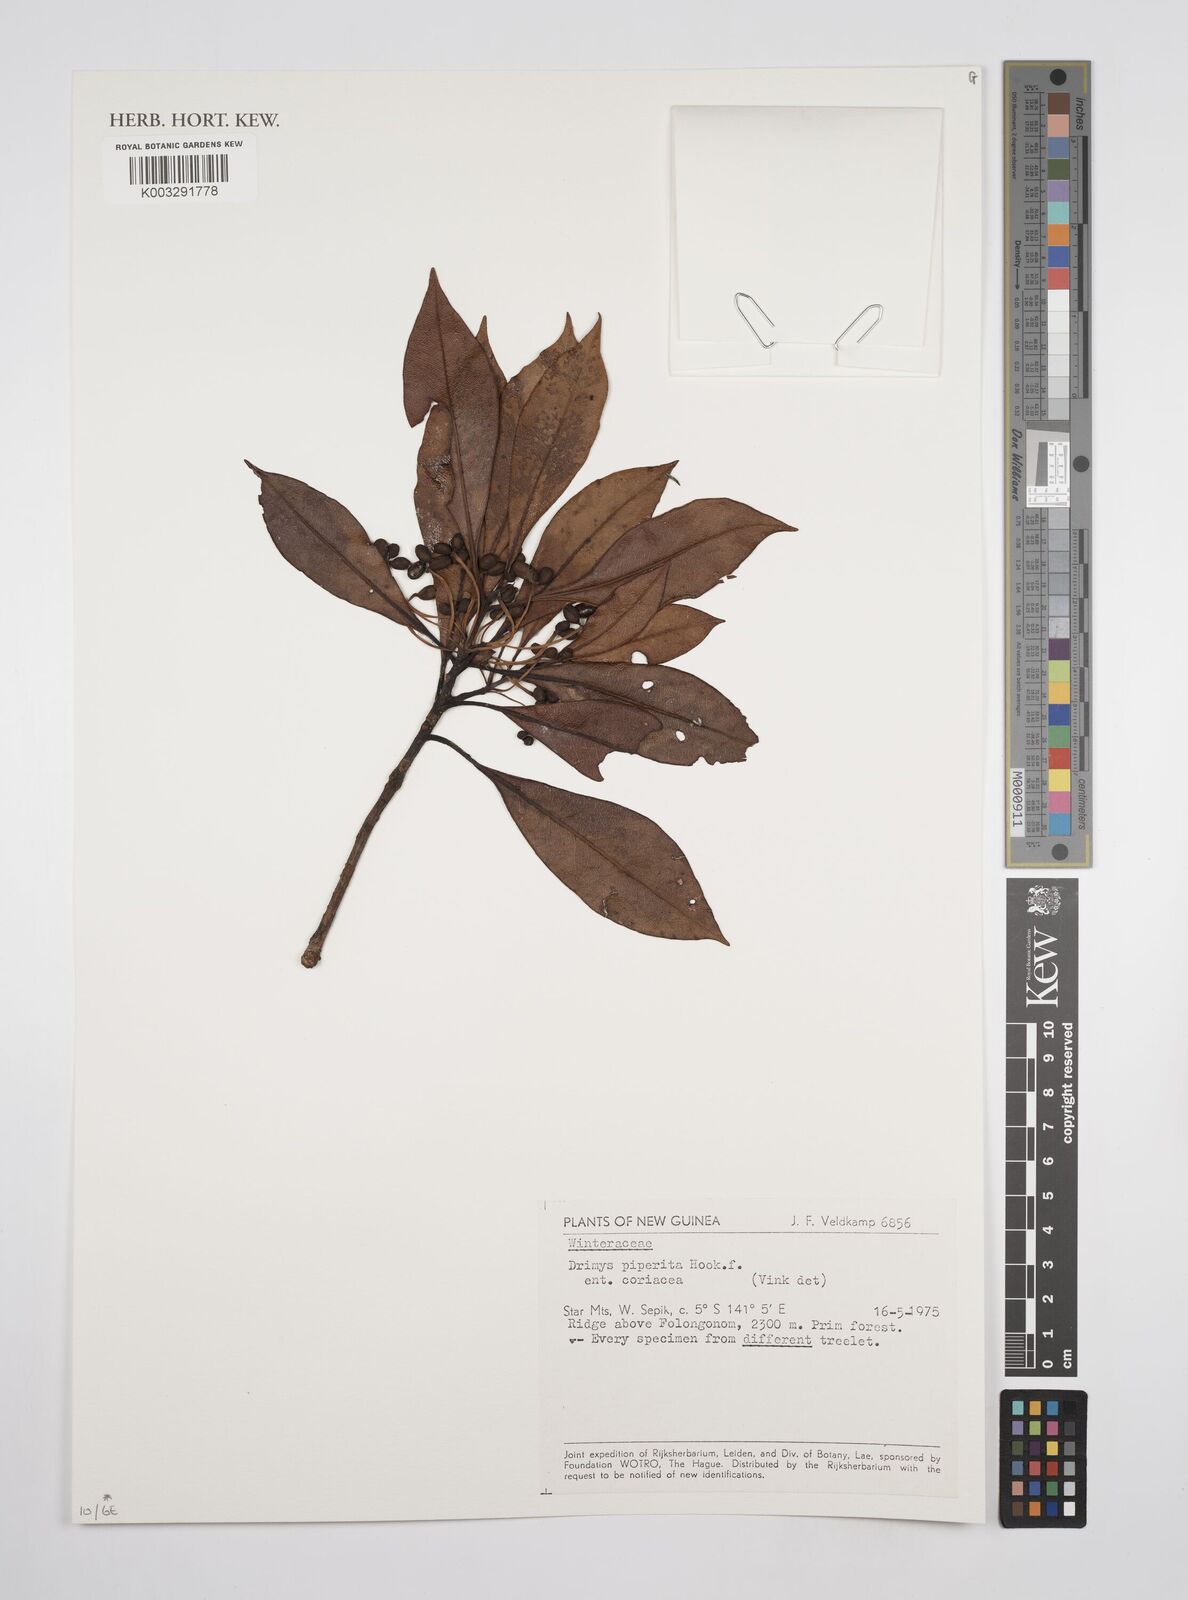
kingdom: Plantae
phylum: Tracheophyta
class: Magnoliopsida
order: Canellales
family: Winteraceae
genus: Drimys
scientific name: Drimys piperita
